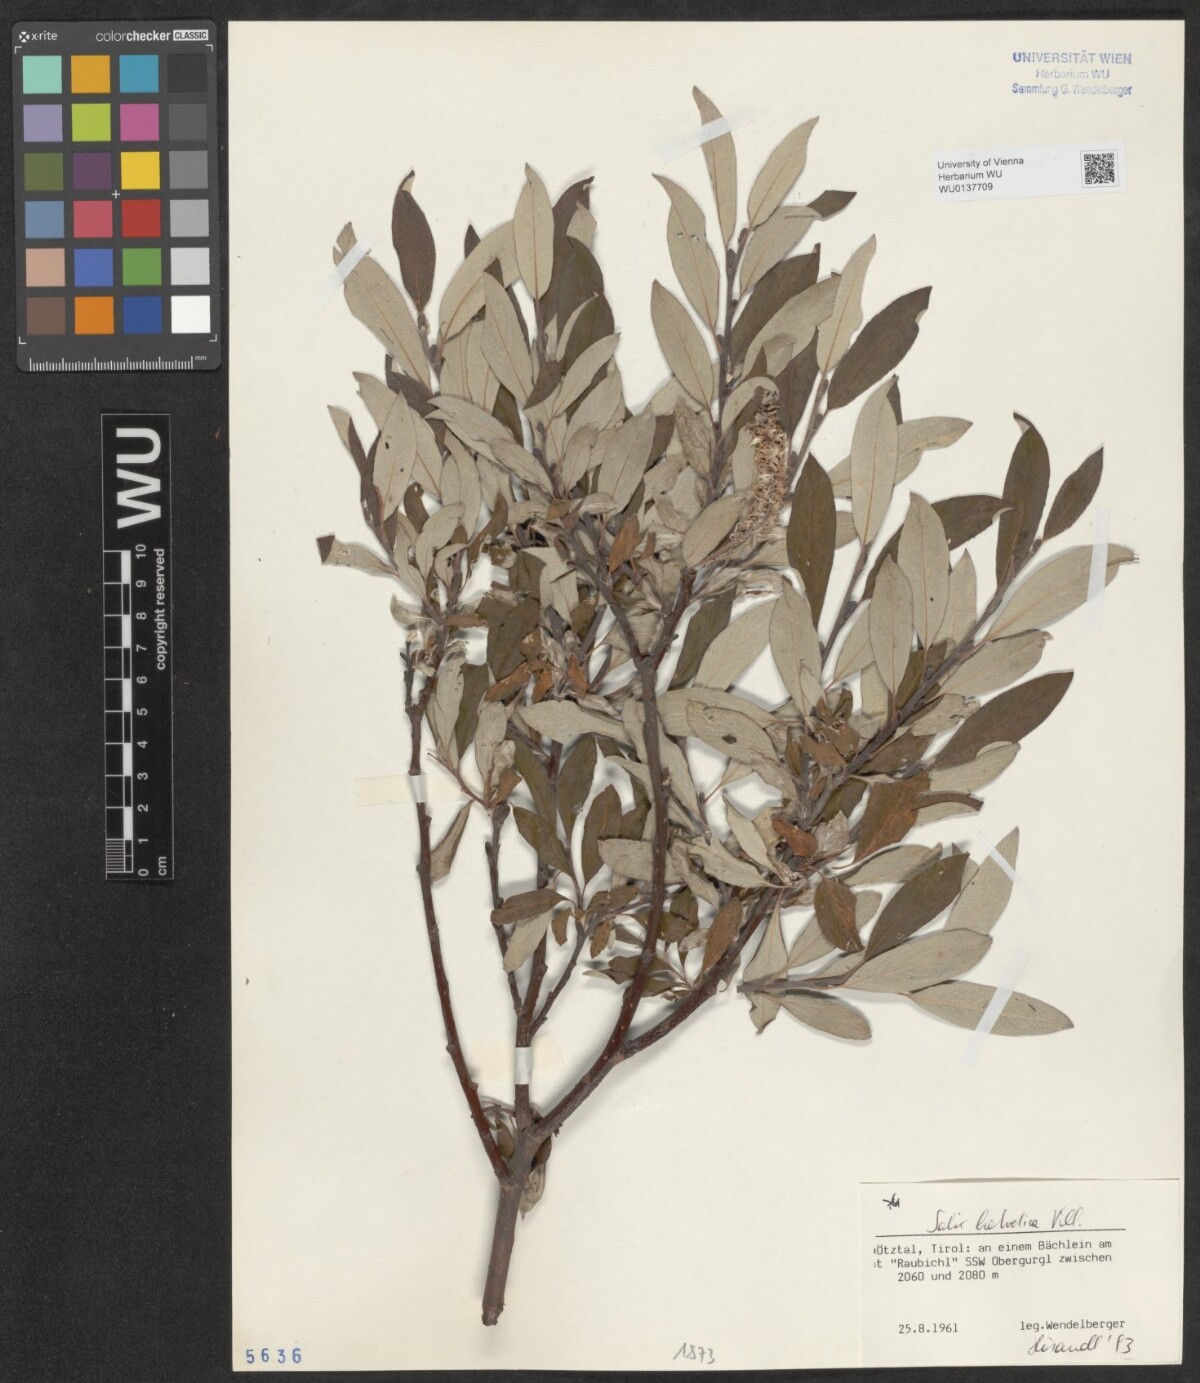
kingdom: Plantae
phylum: Tracheophyta
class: Magnoliopsida
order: Malpighiales
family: Salicaceae
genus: Salix
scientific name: Salix helvetica
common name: Swiss willow
